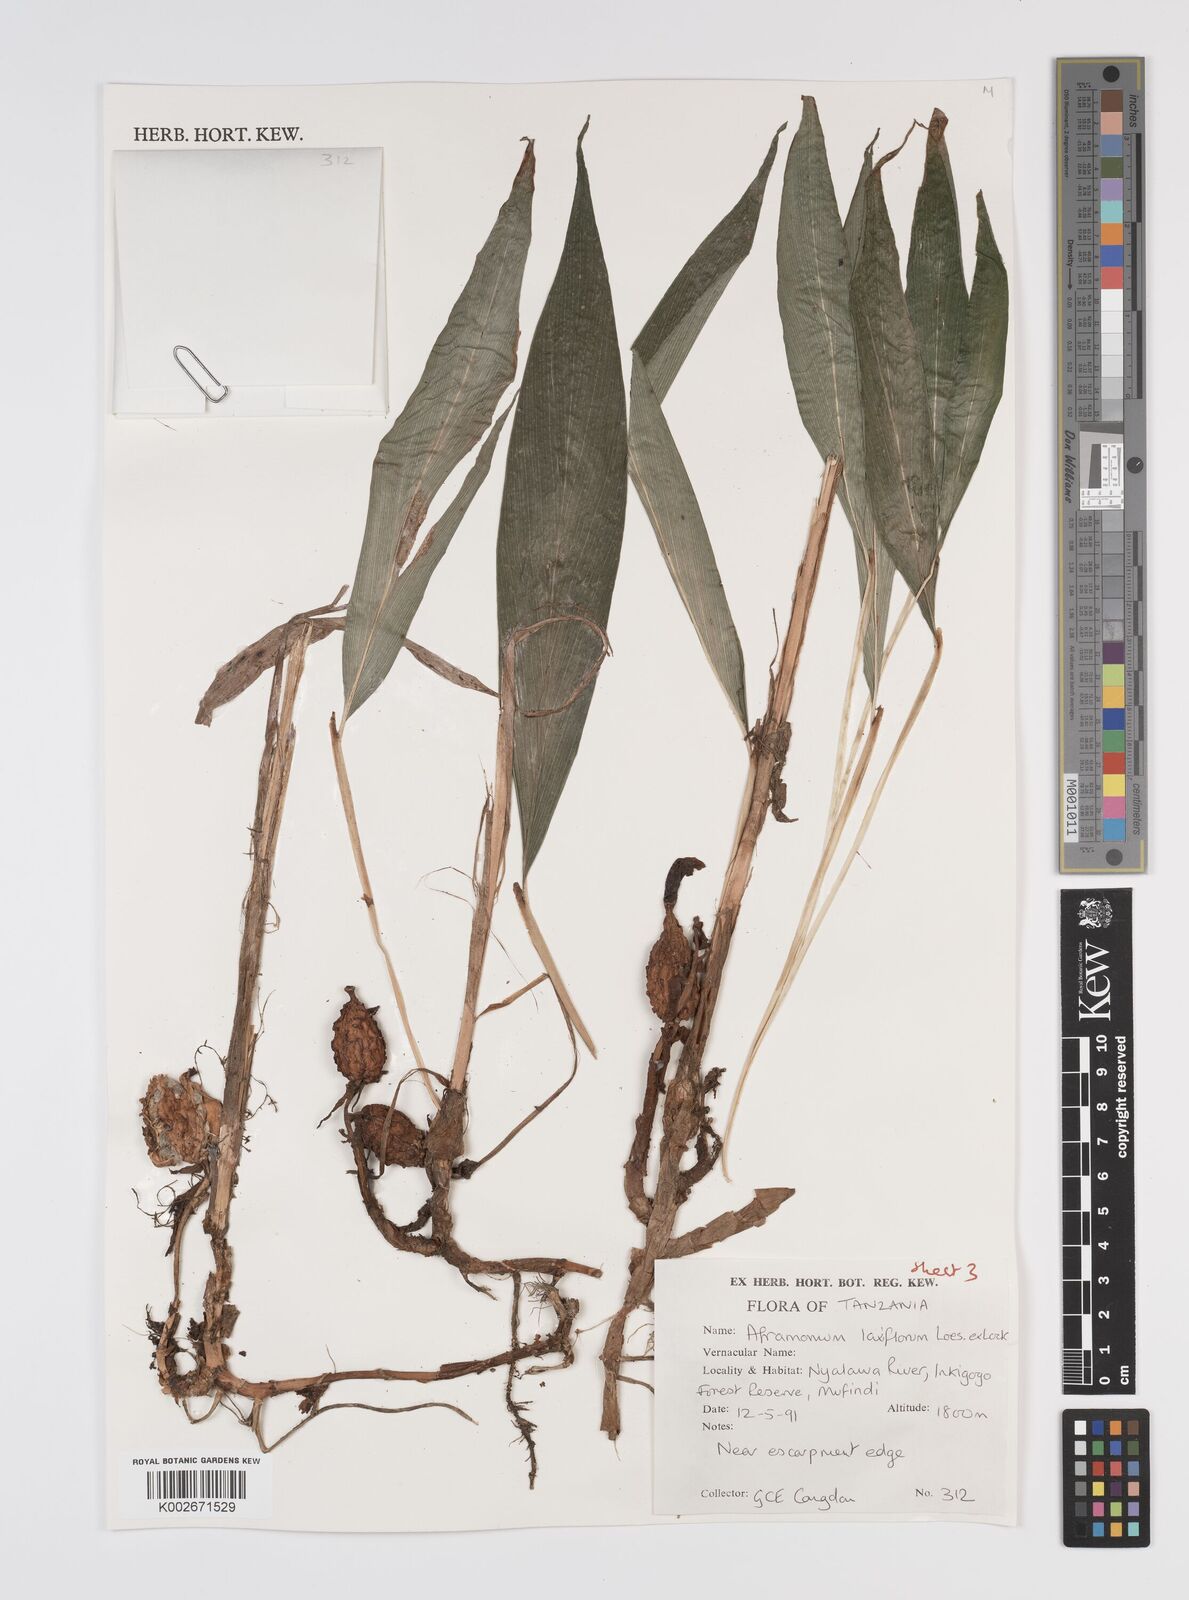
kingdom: Plantae
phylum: Tracheophyta
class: Liliopsida
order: Zingiberales
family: Zingiberaceae
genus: Aframomum
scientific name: Aframomum laxiflorum
